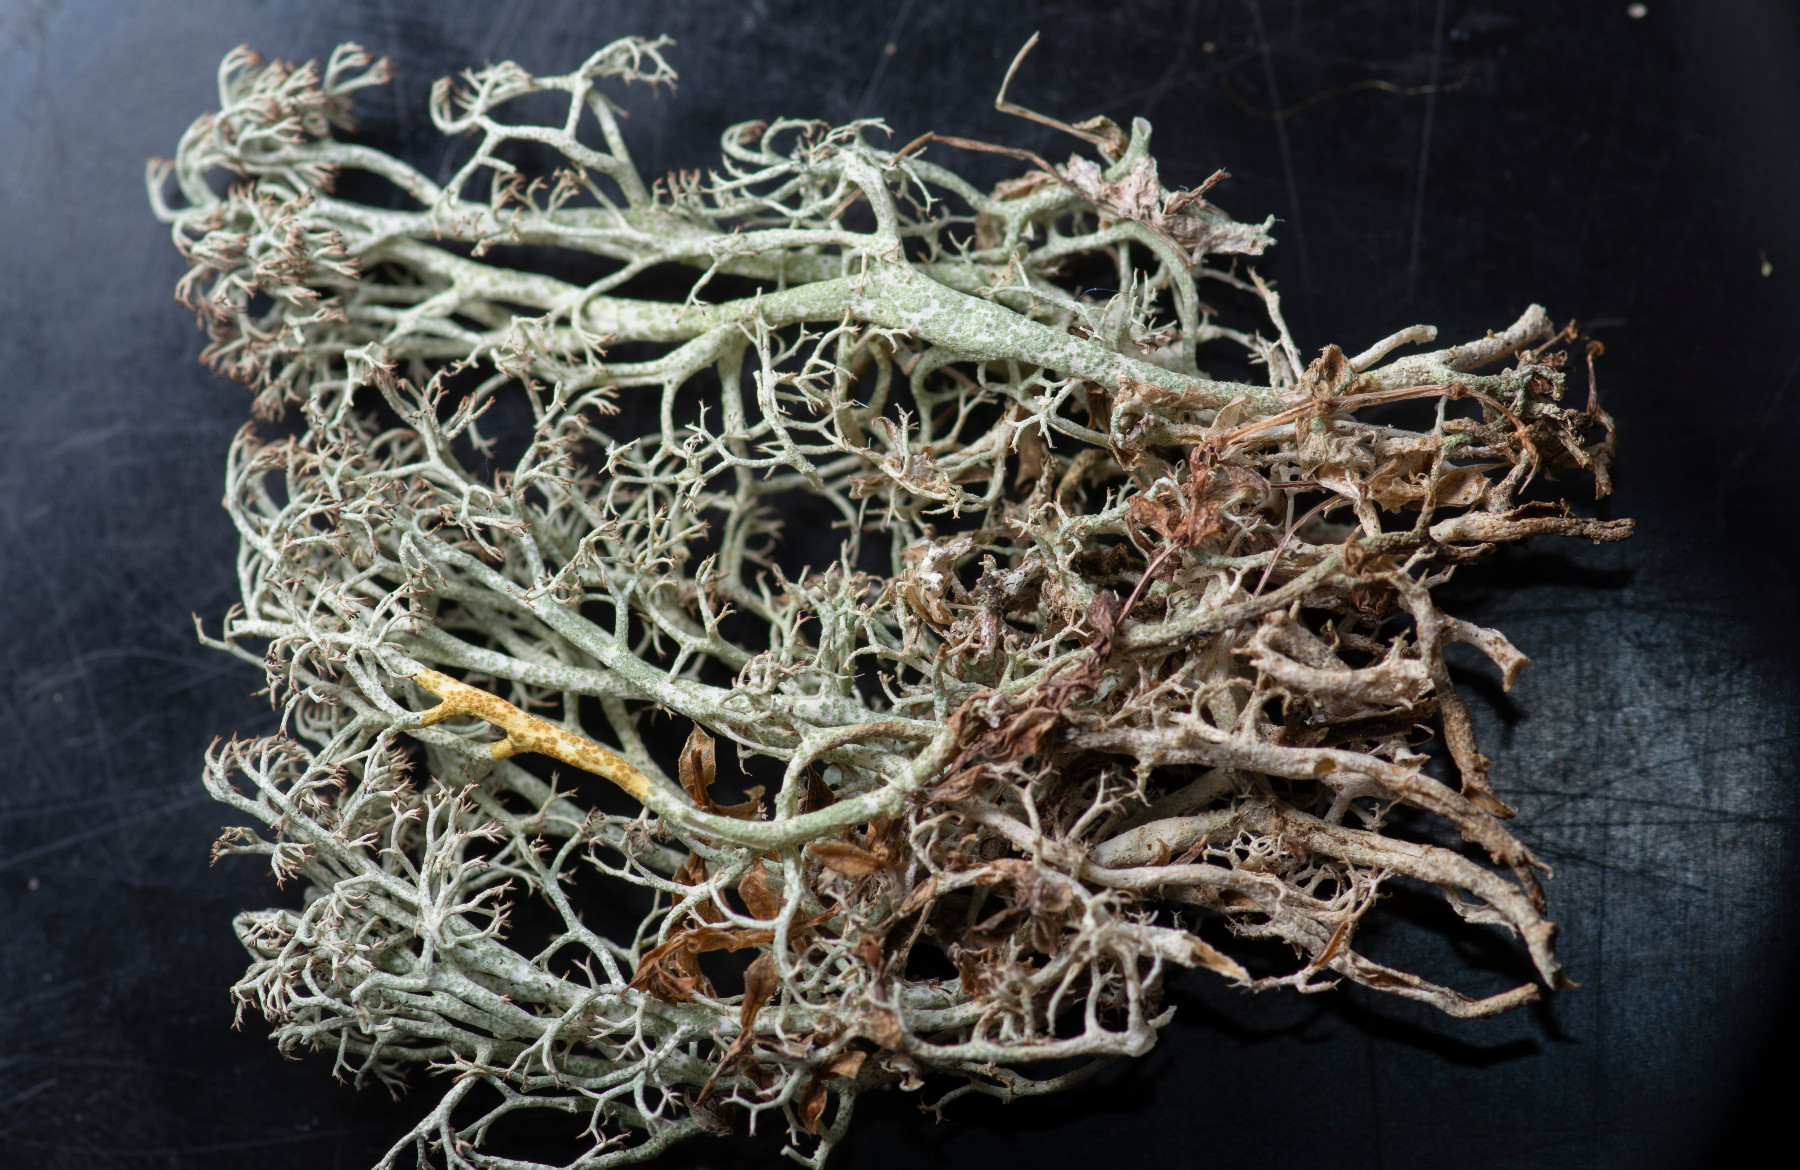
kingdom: Fungi
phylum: Ascomycota
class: Lecanoromycetes
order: Lecanorales
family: Cladoniaceae
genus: Cladonia
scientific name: Cladonia ciliata
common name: spinkel rensdyrlav
